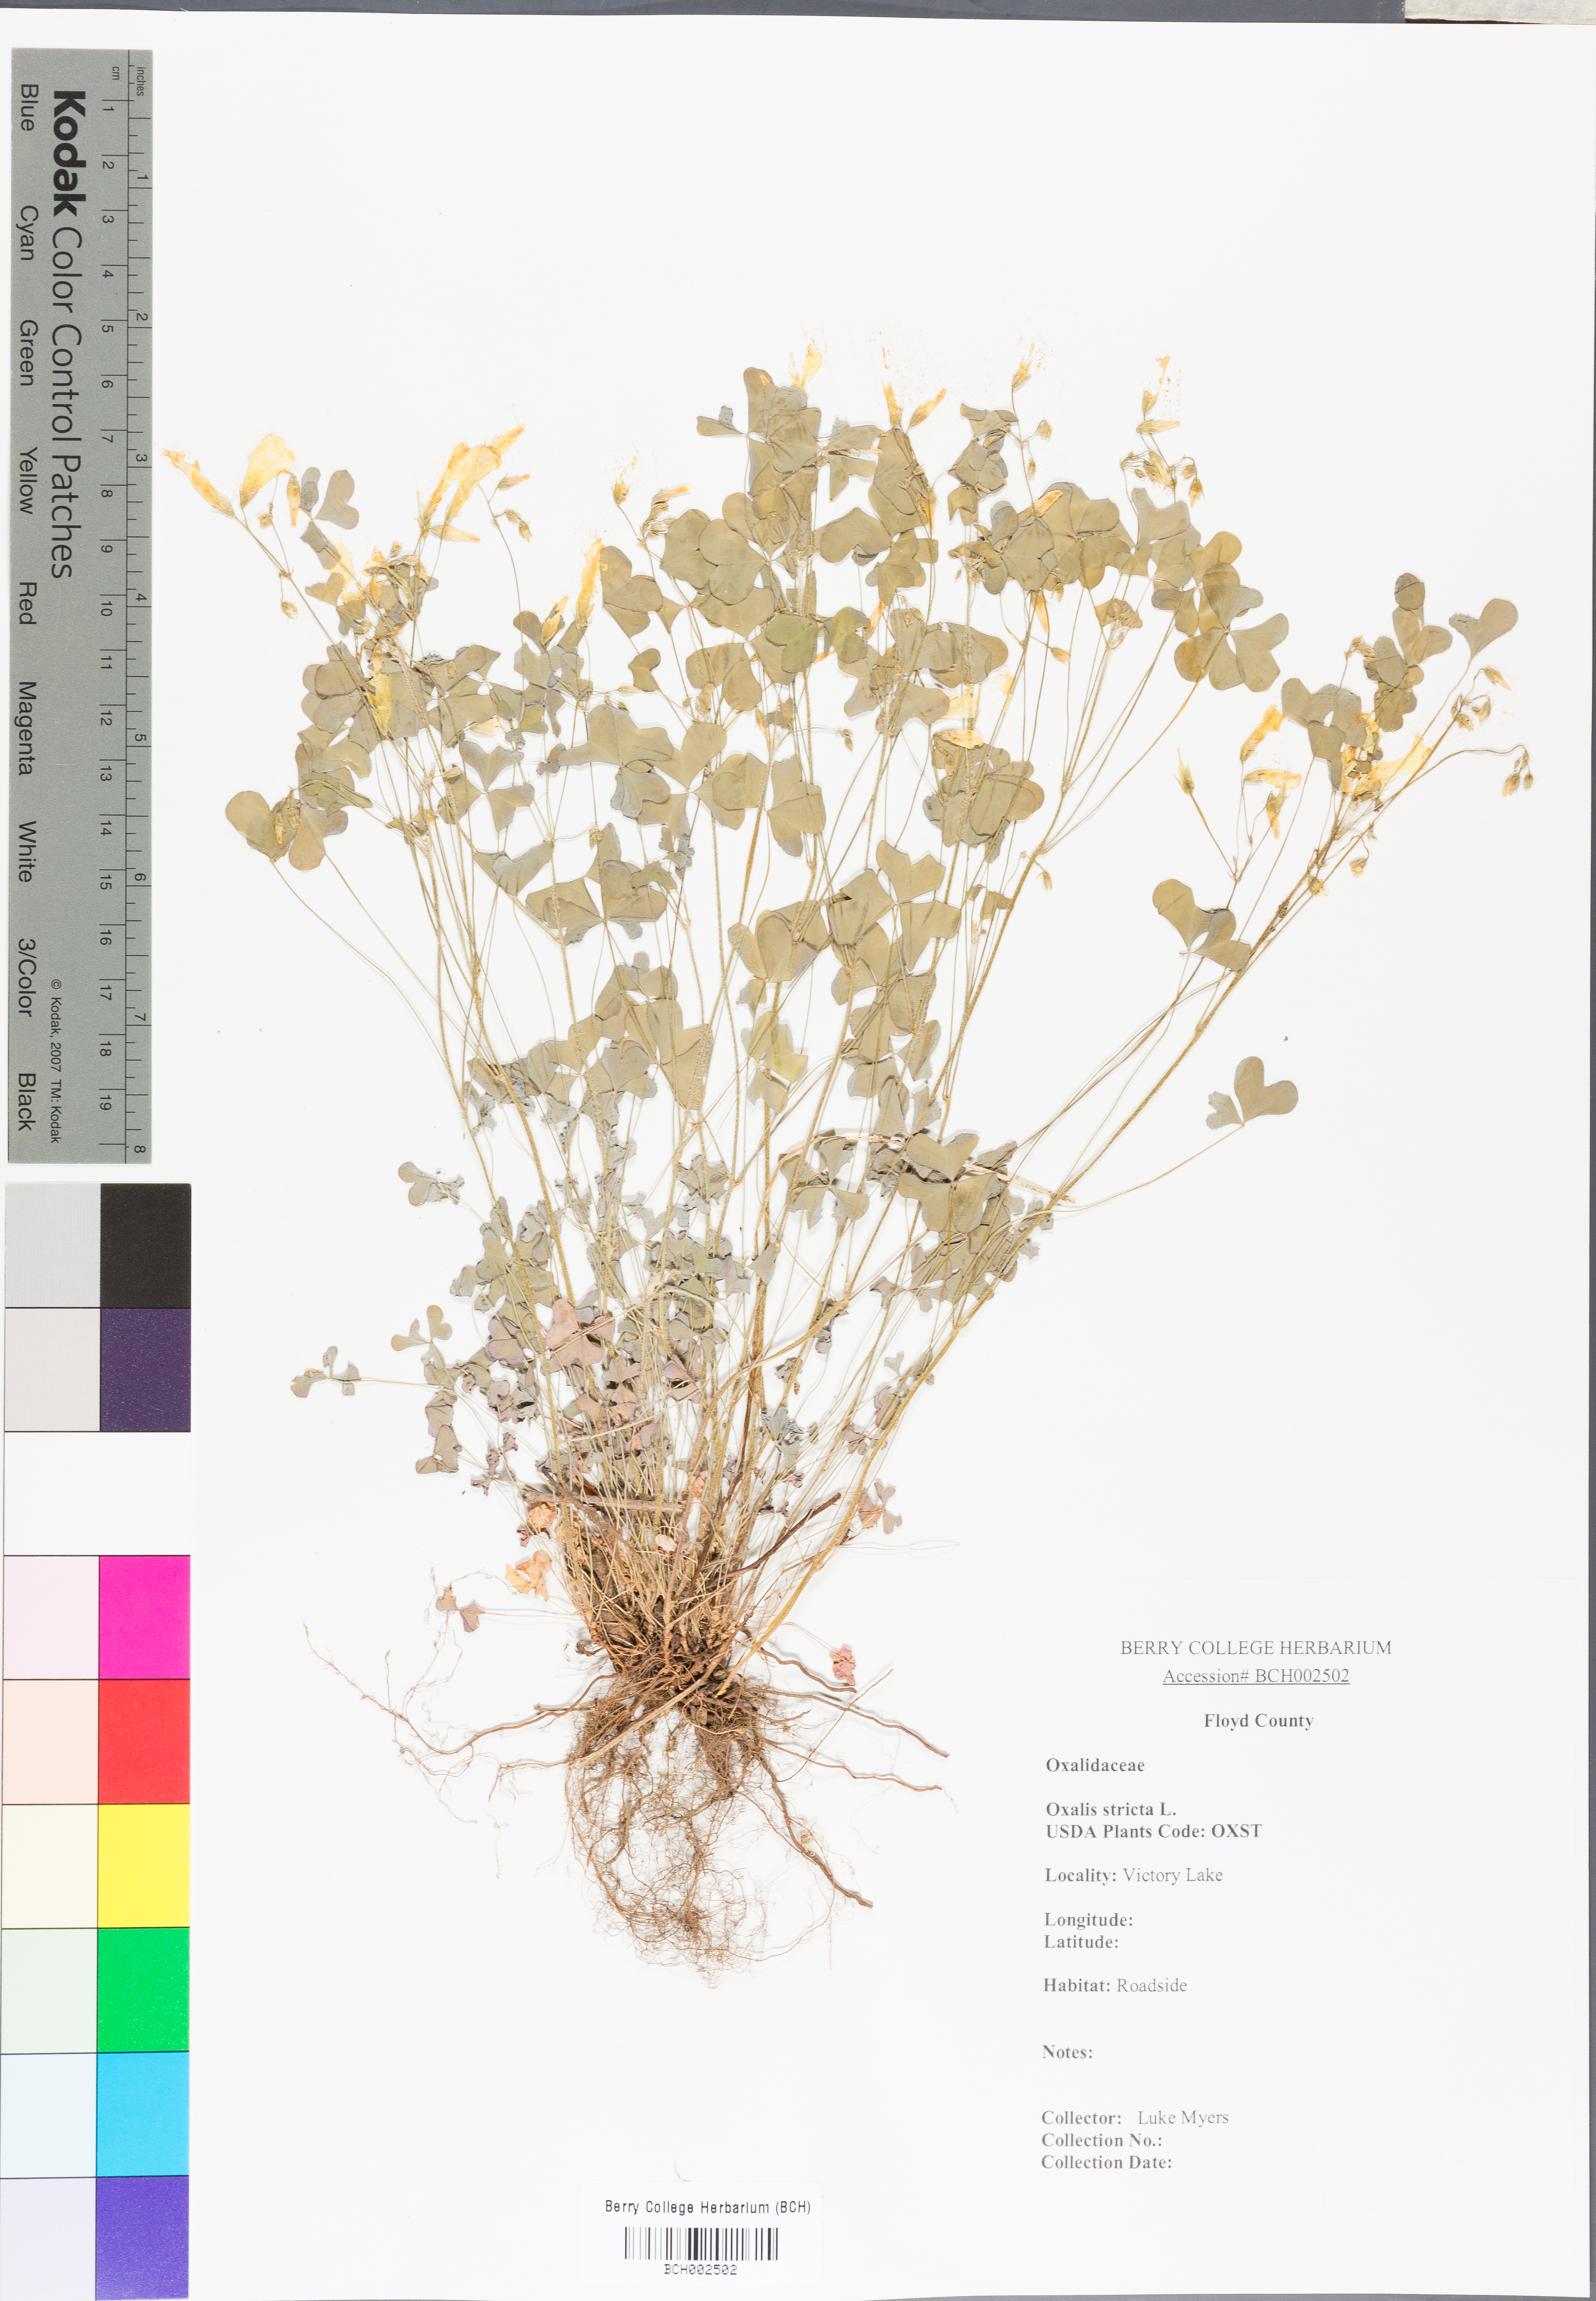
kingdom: Plantae
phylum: Tracheophyta
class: Magnoliopsida
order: Oxalidales
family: Oxalidaceae
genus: Oxalis
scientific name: Oxalis stricta
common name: Upright yellow-sorrel
